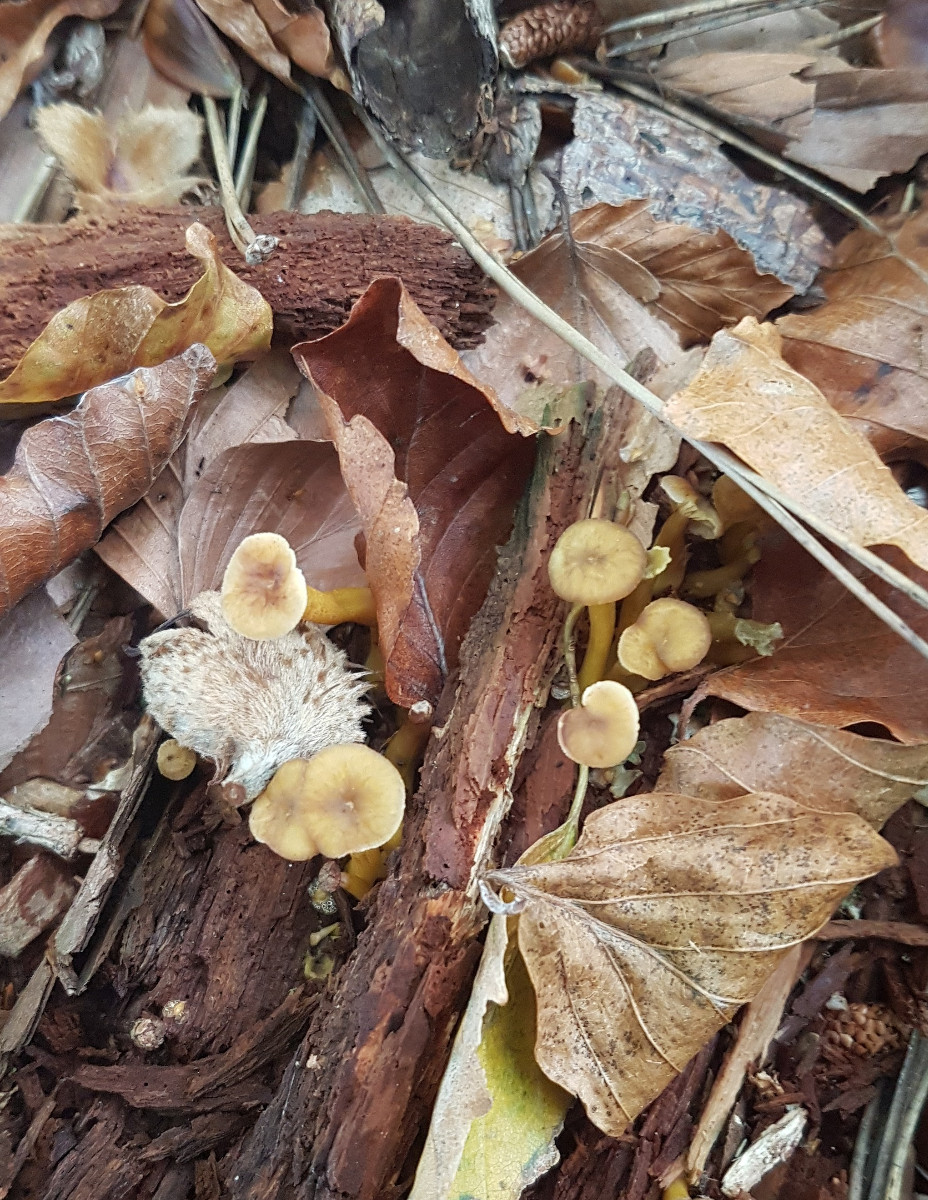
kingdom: Fungi
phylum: Basidiomycota
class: Agaricomycetes
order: Cantharellales
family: Hydnaceae
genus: Craterellus
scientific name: Craterellus tubaeformis
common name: tragt-kantarel
